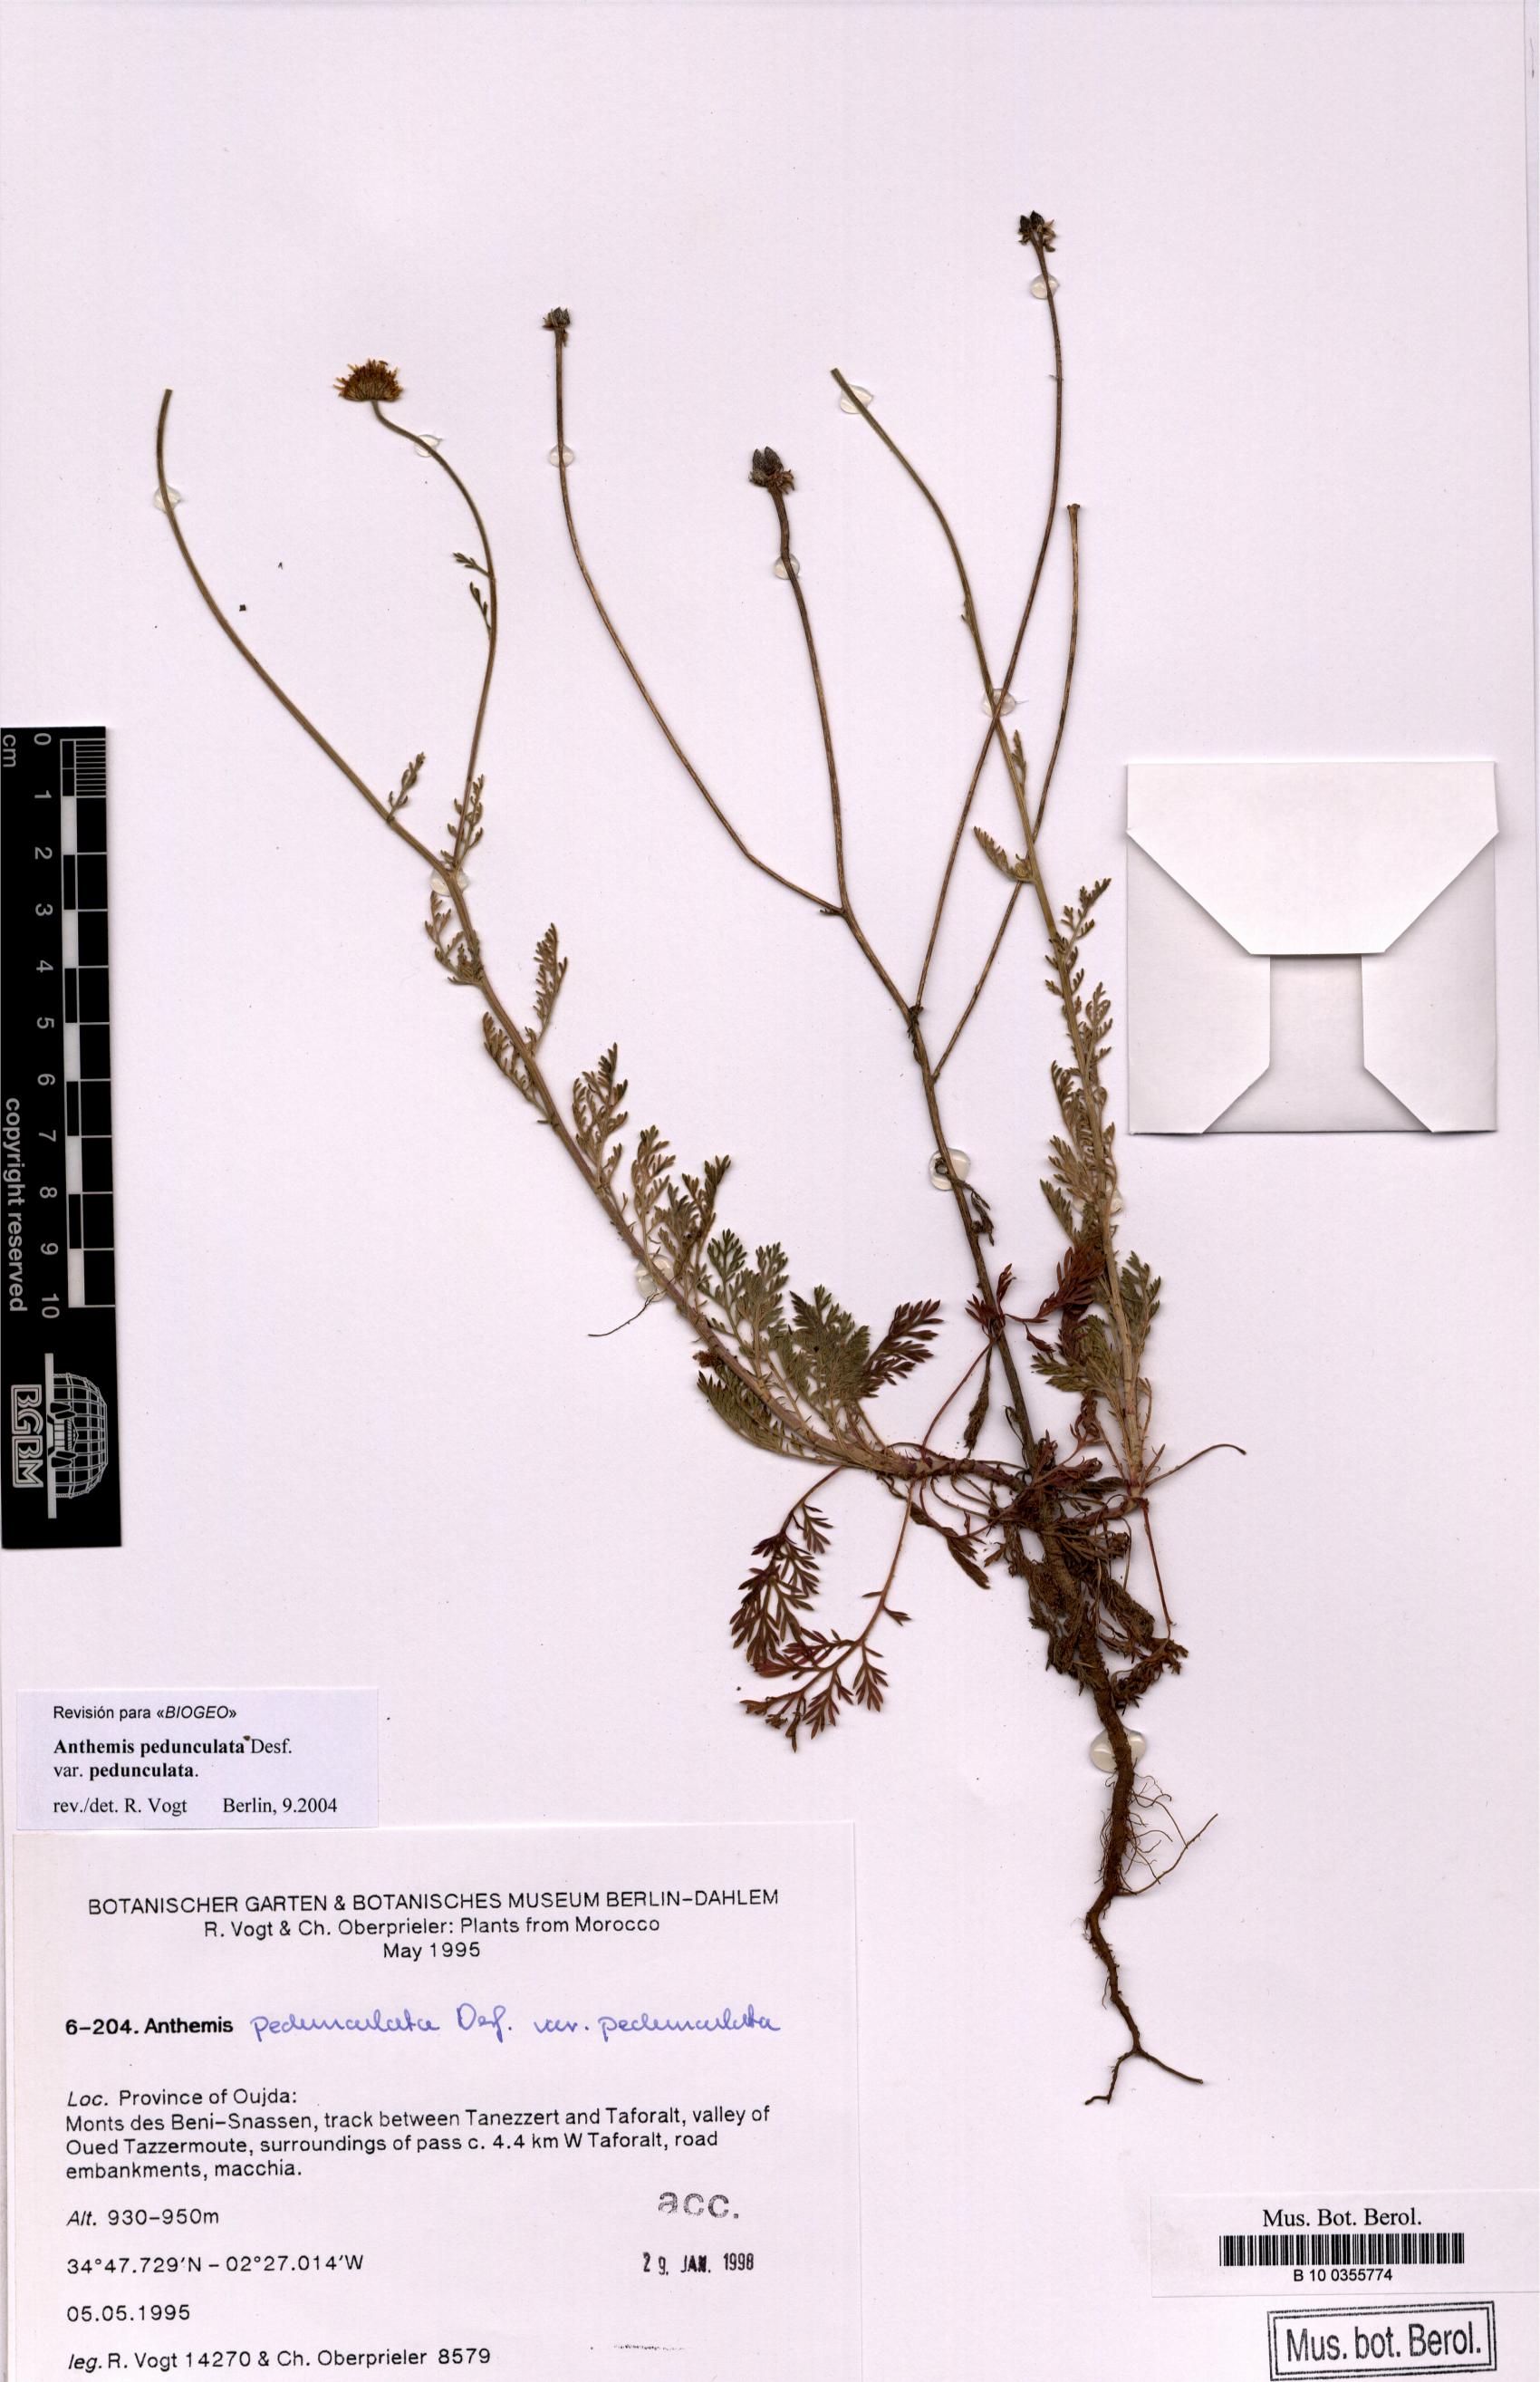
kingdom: Plantae
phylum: Tracheophyta
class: Magnoliopsida
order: Asterales
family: Asteraceae
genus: Anthemis
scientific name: Anthemis pedunculata
